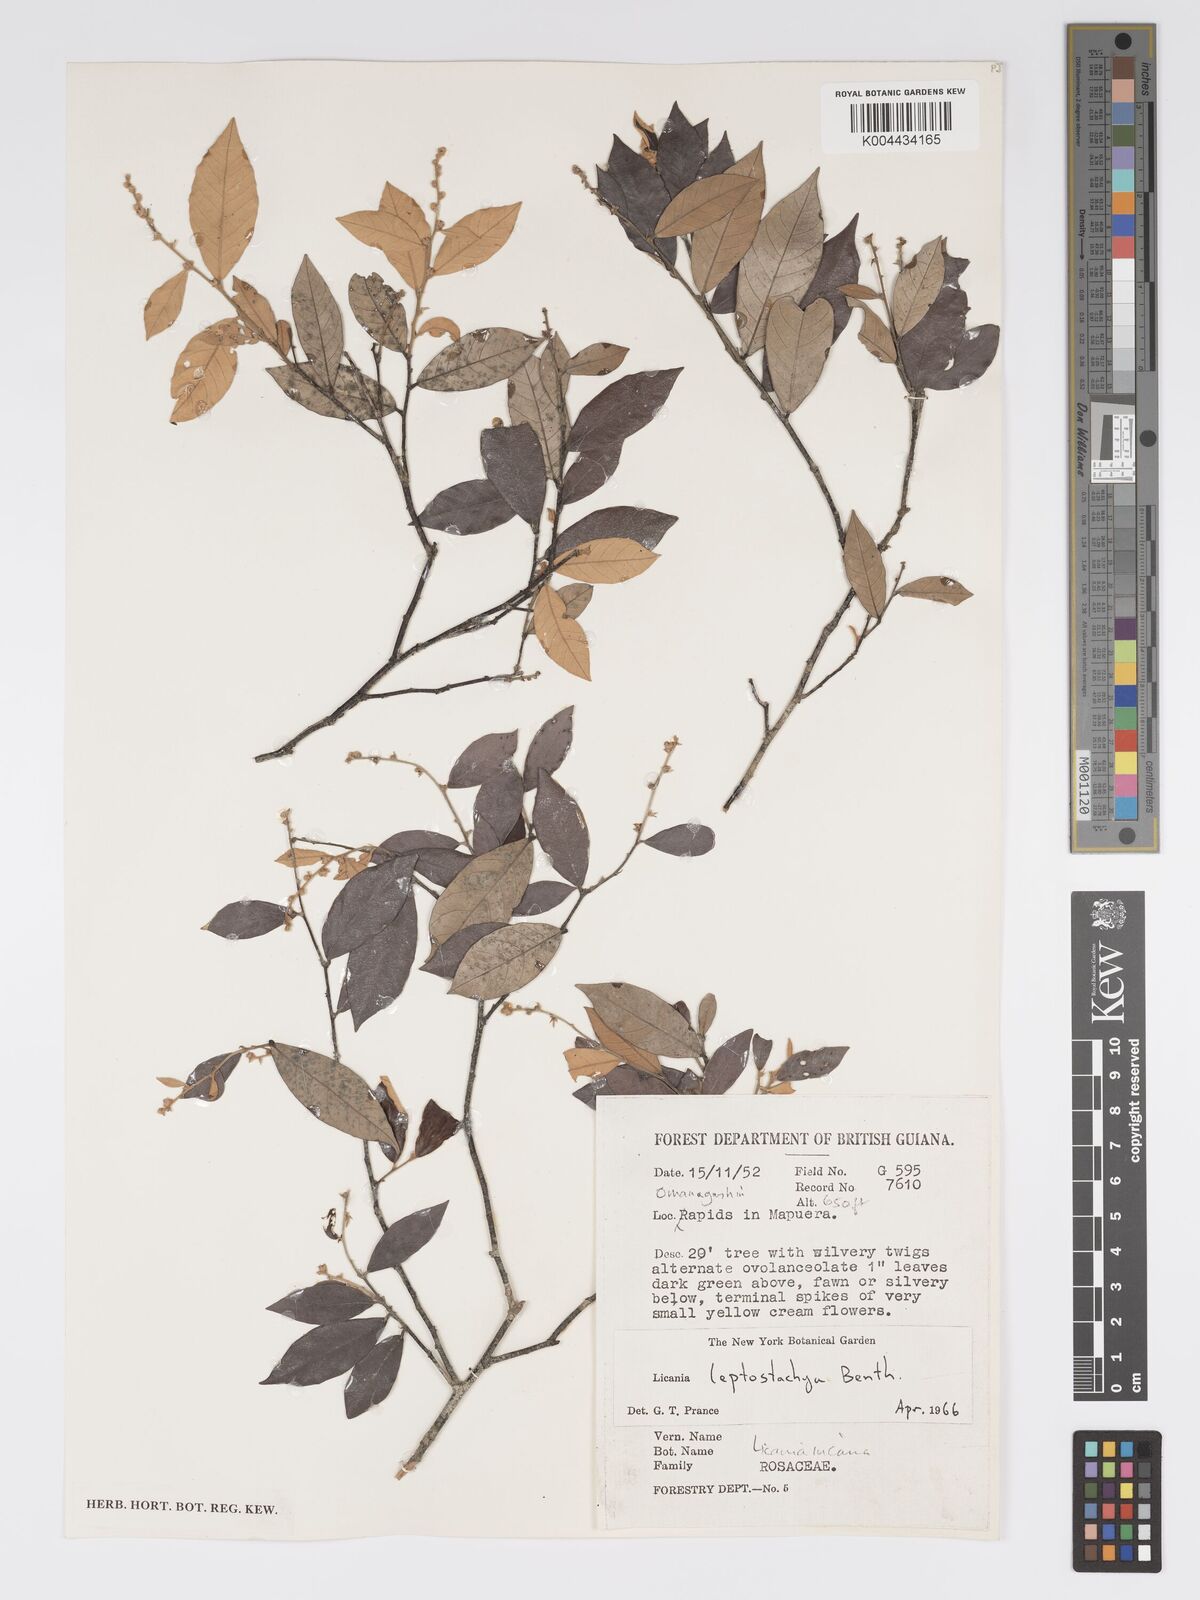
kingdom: Plantae
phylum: Tracheophyta
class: Magnoliopsida
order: Malpighiales
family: Chrysobalanaceae
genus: Licania
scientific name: Licania leptostachya
